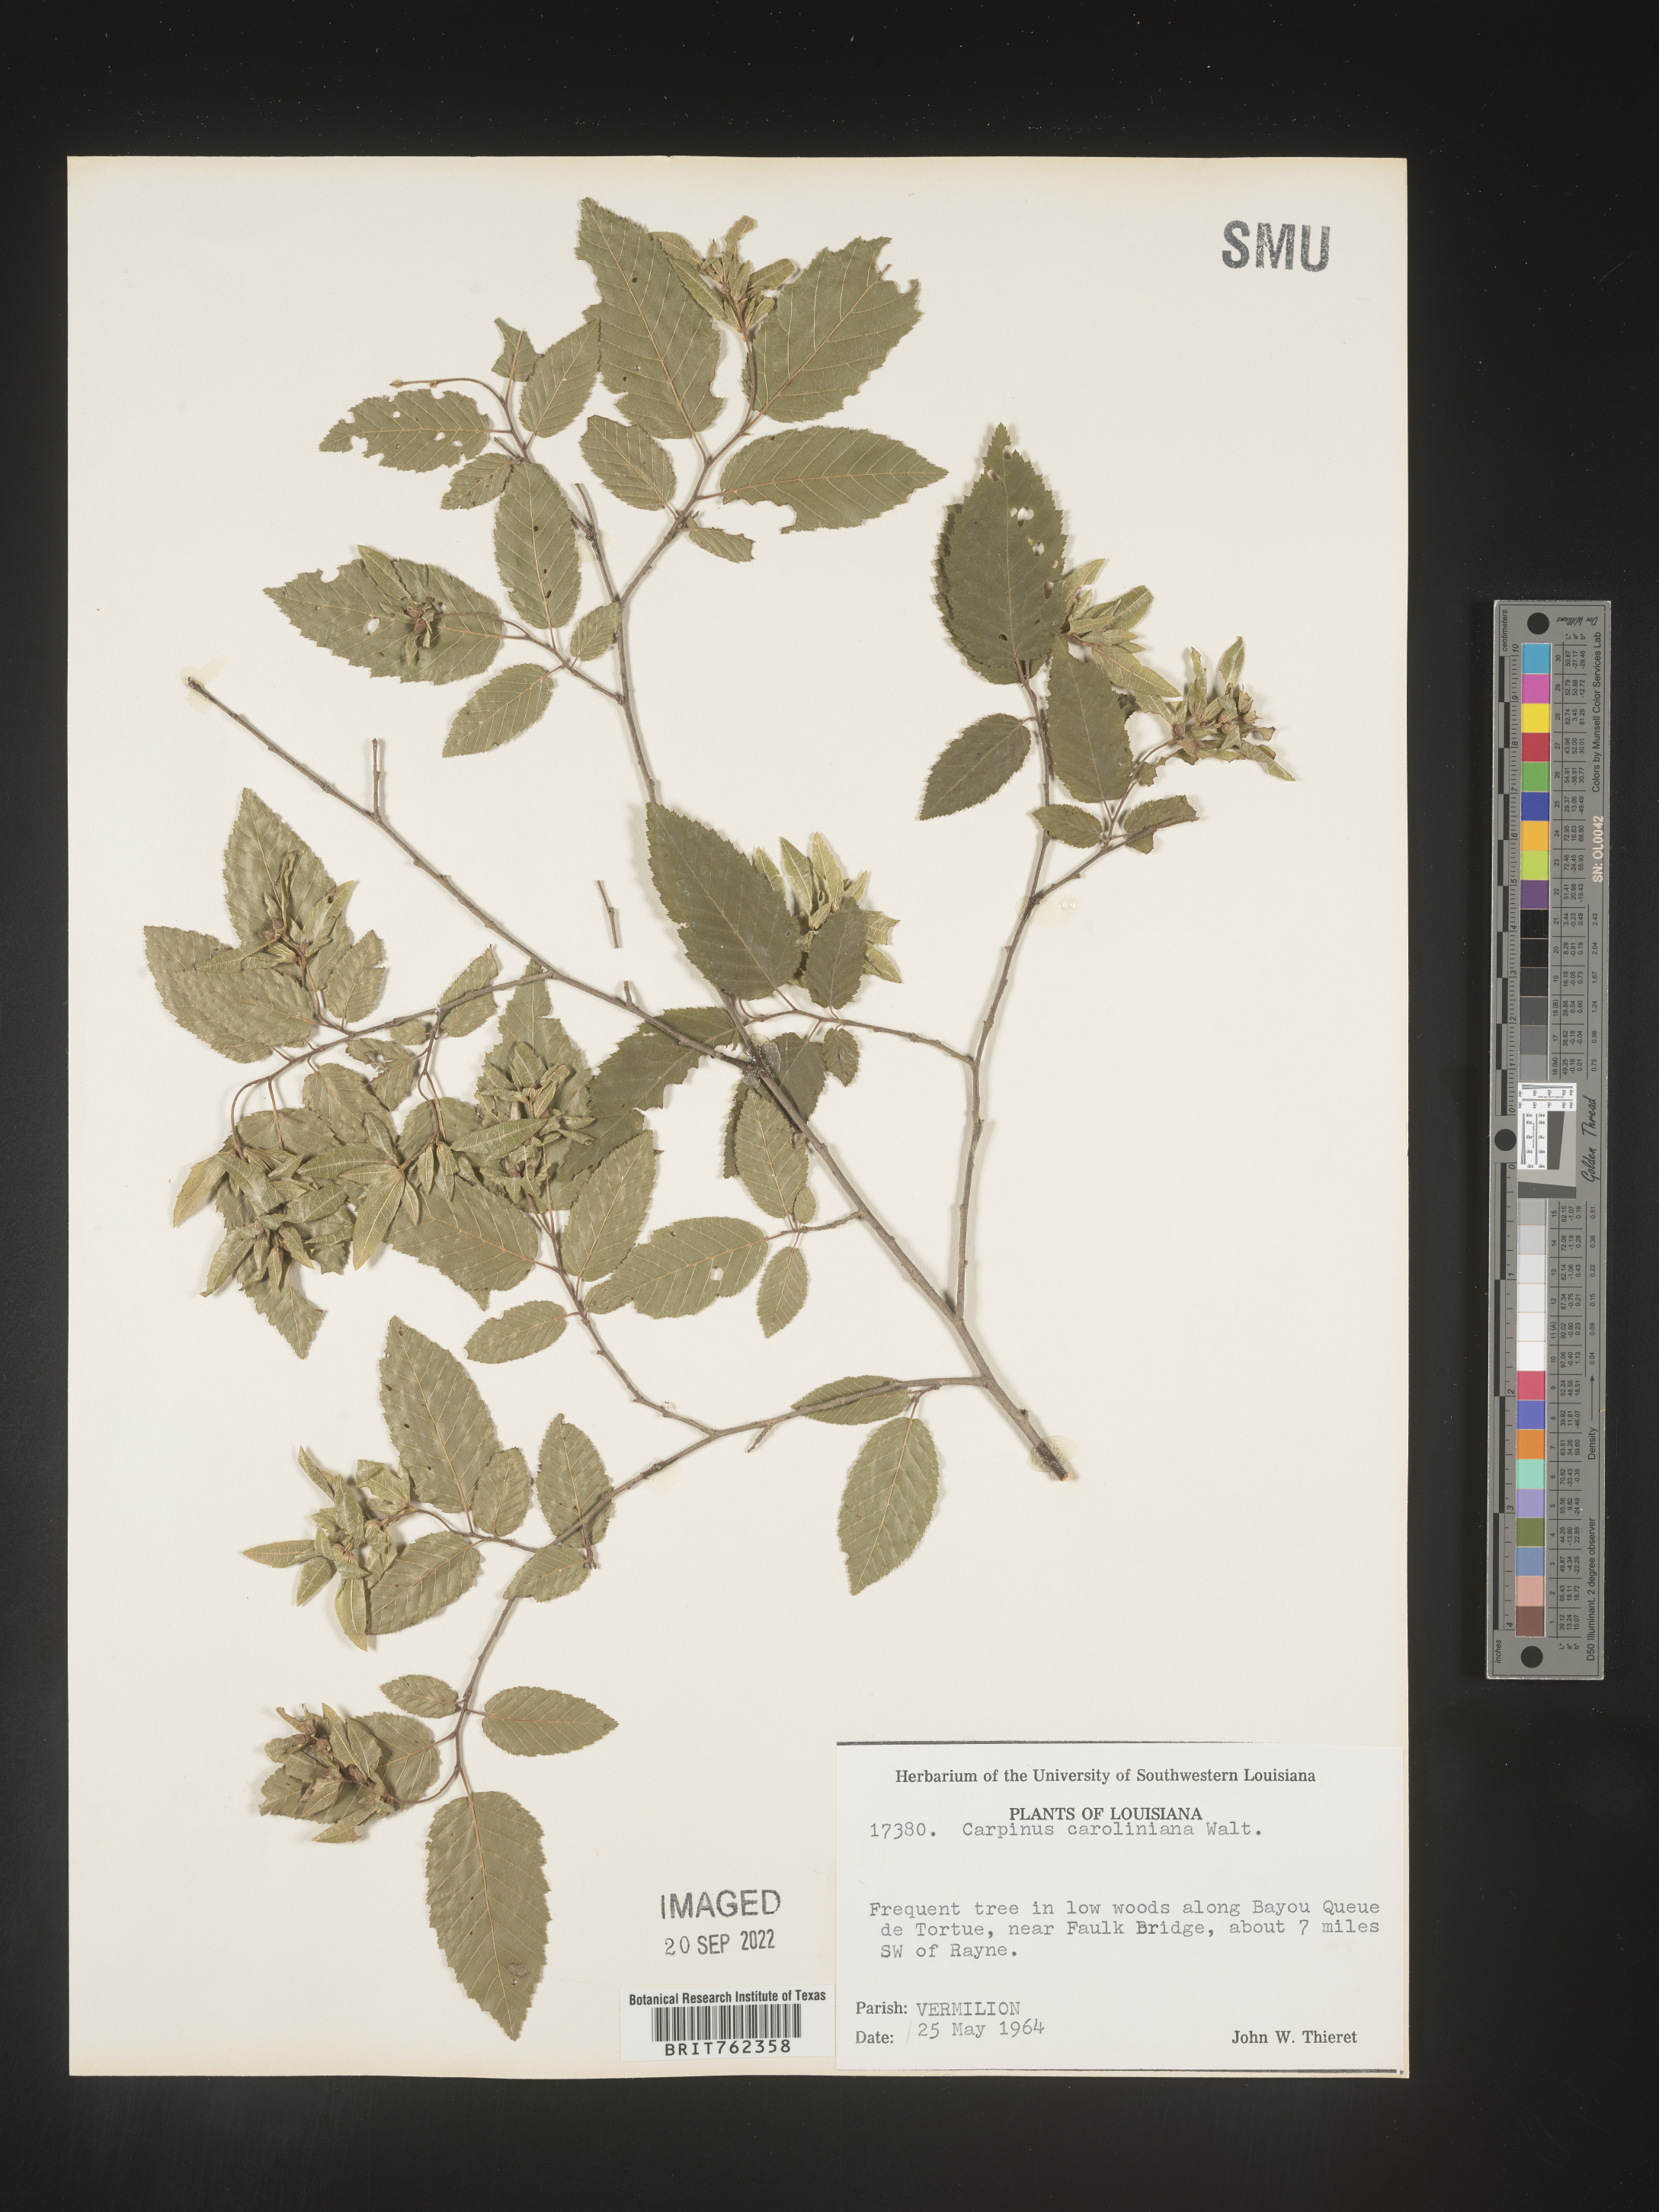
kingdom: Plantae
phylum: Tracheophyta
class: Magnoliopsida
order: Fagales
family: Betulaceae
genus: Carpinus
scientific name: Carpinus caroliniana
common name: American hornbeam
